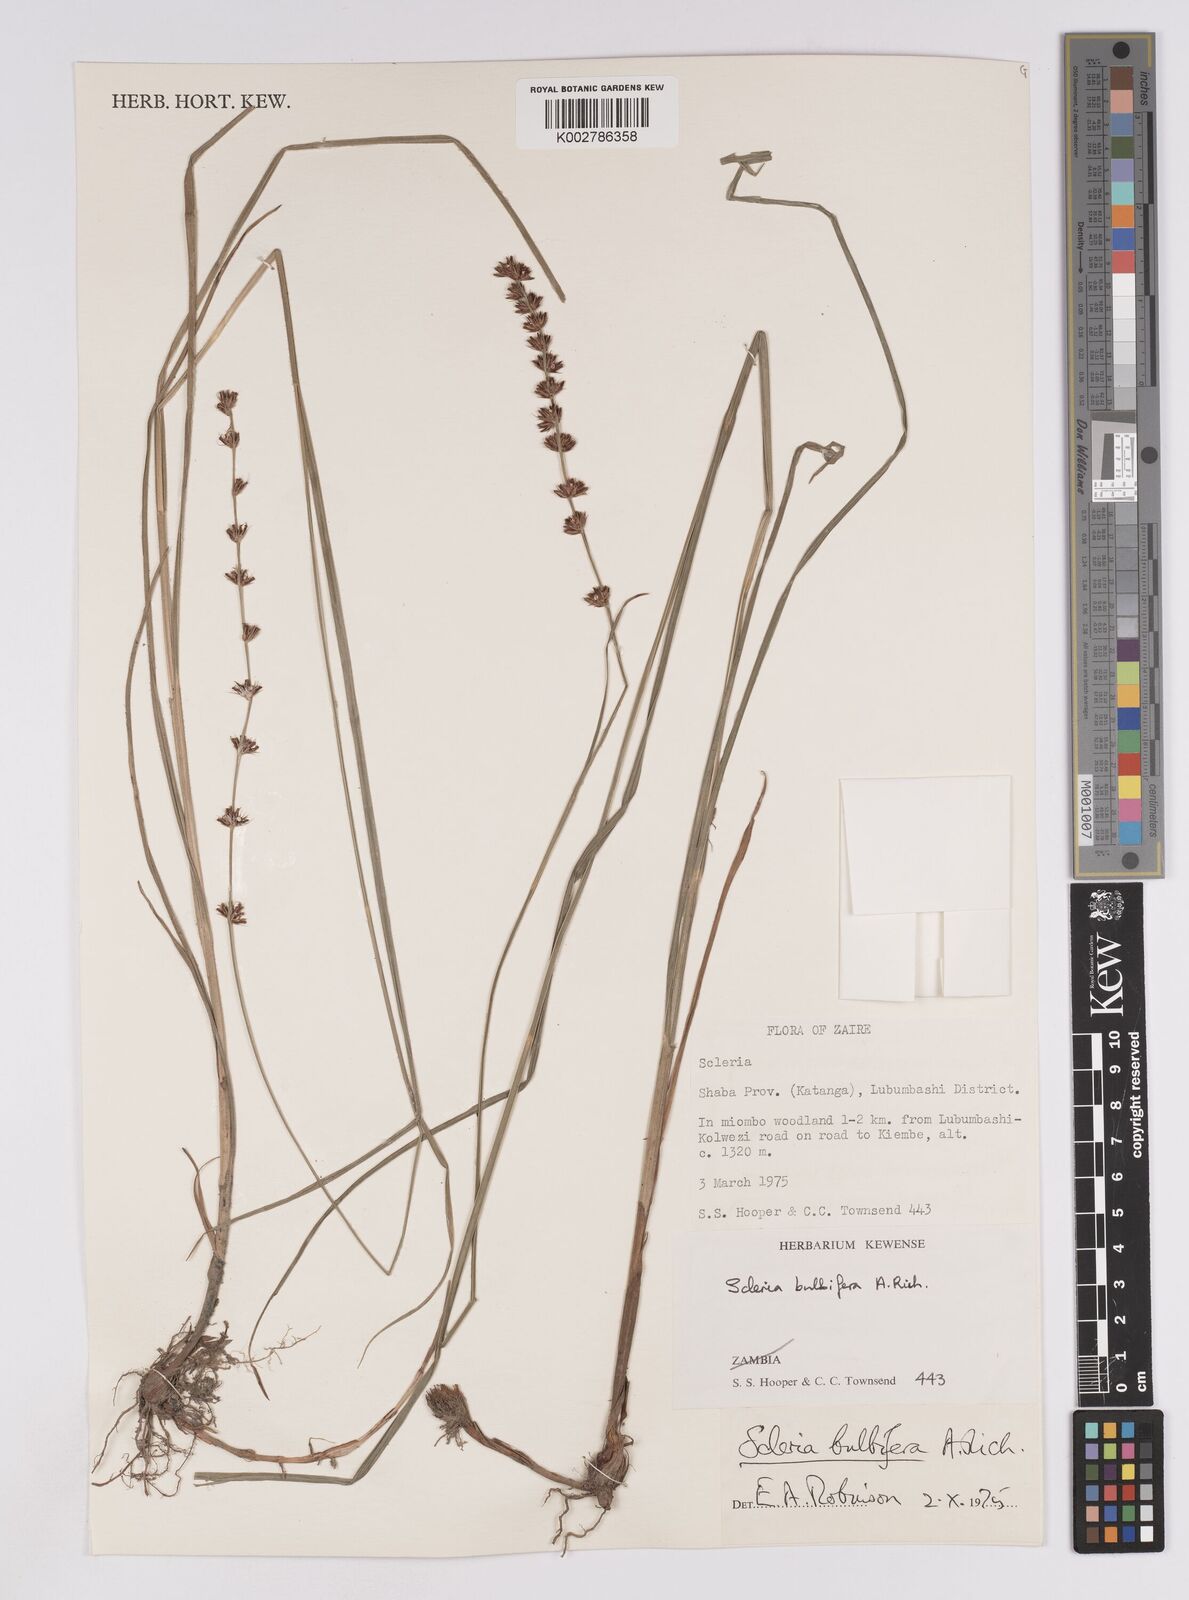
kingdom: Plantae
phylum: Tracheophyta
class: Liliopsida
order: Poales
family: Cyperaceae
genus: Scleria
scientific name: Scleria bulbifera
